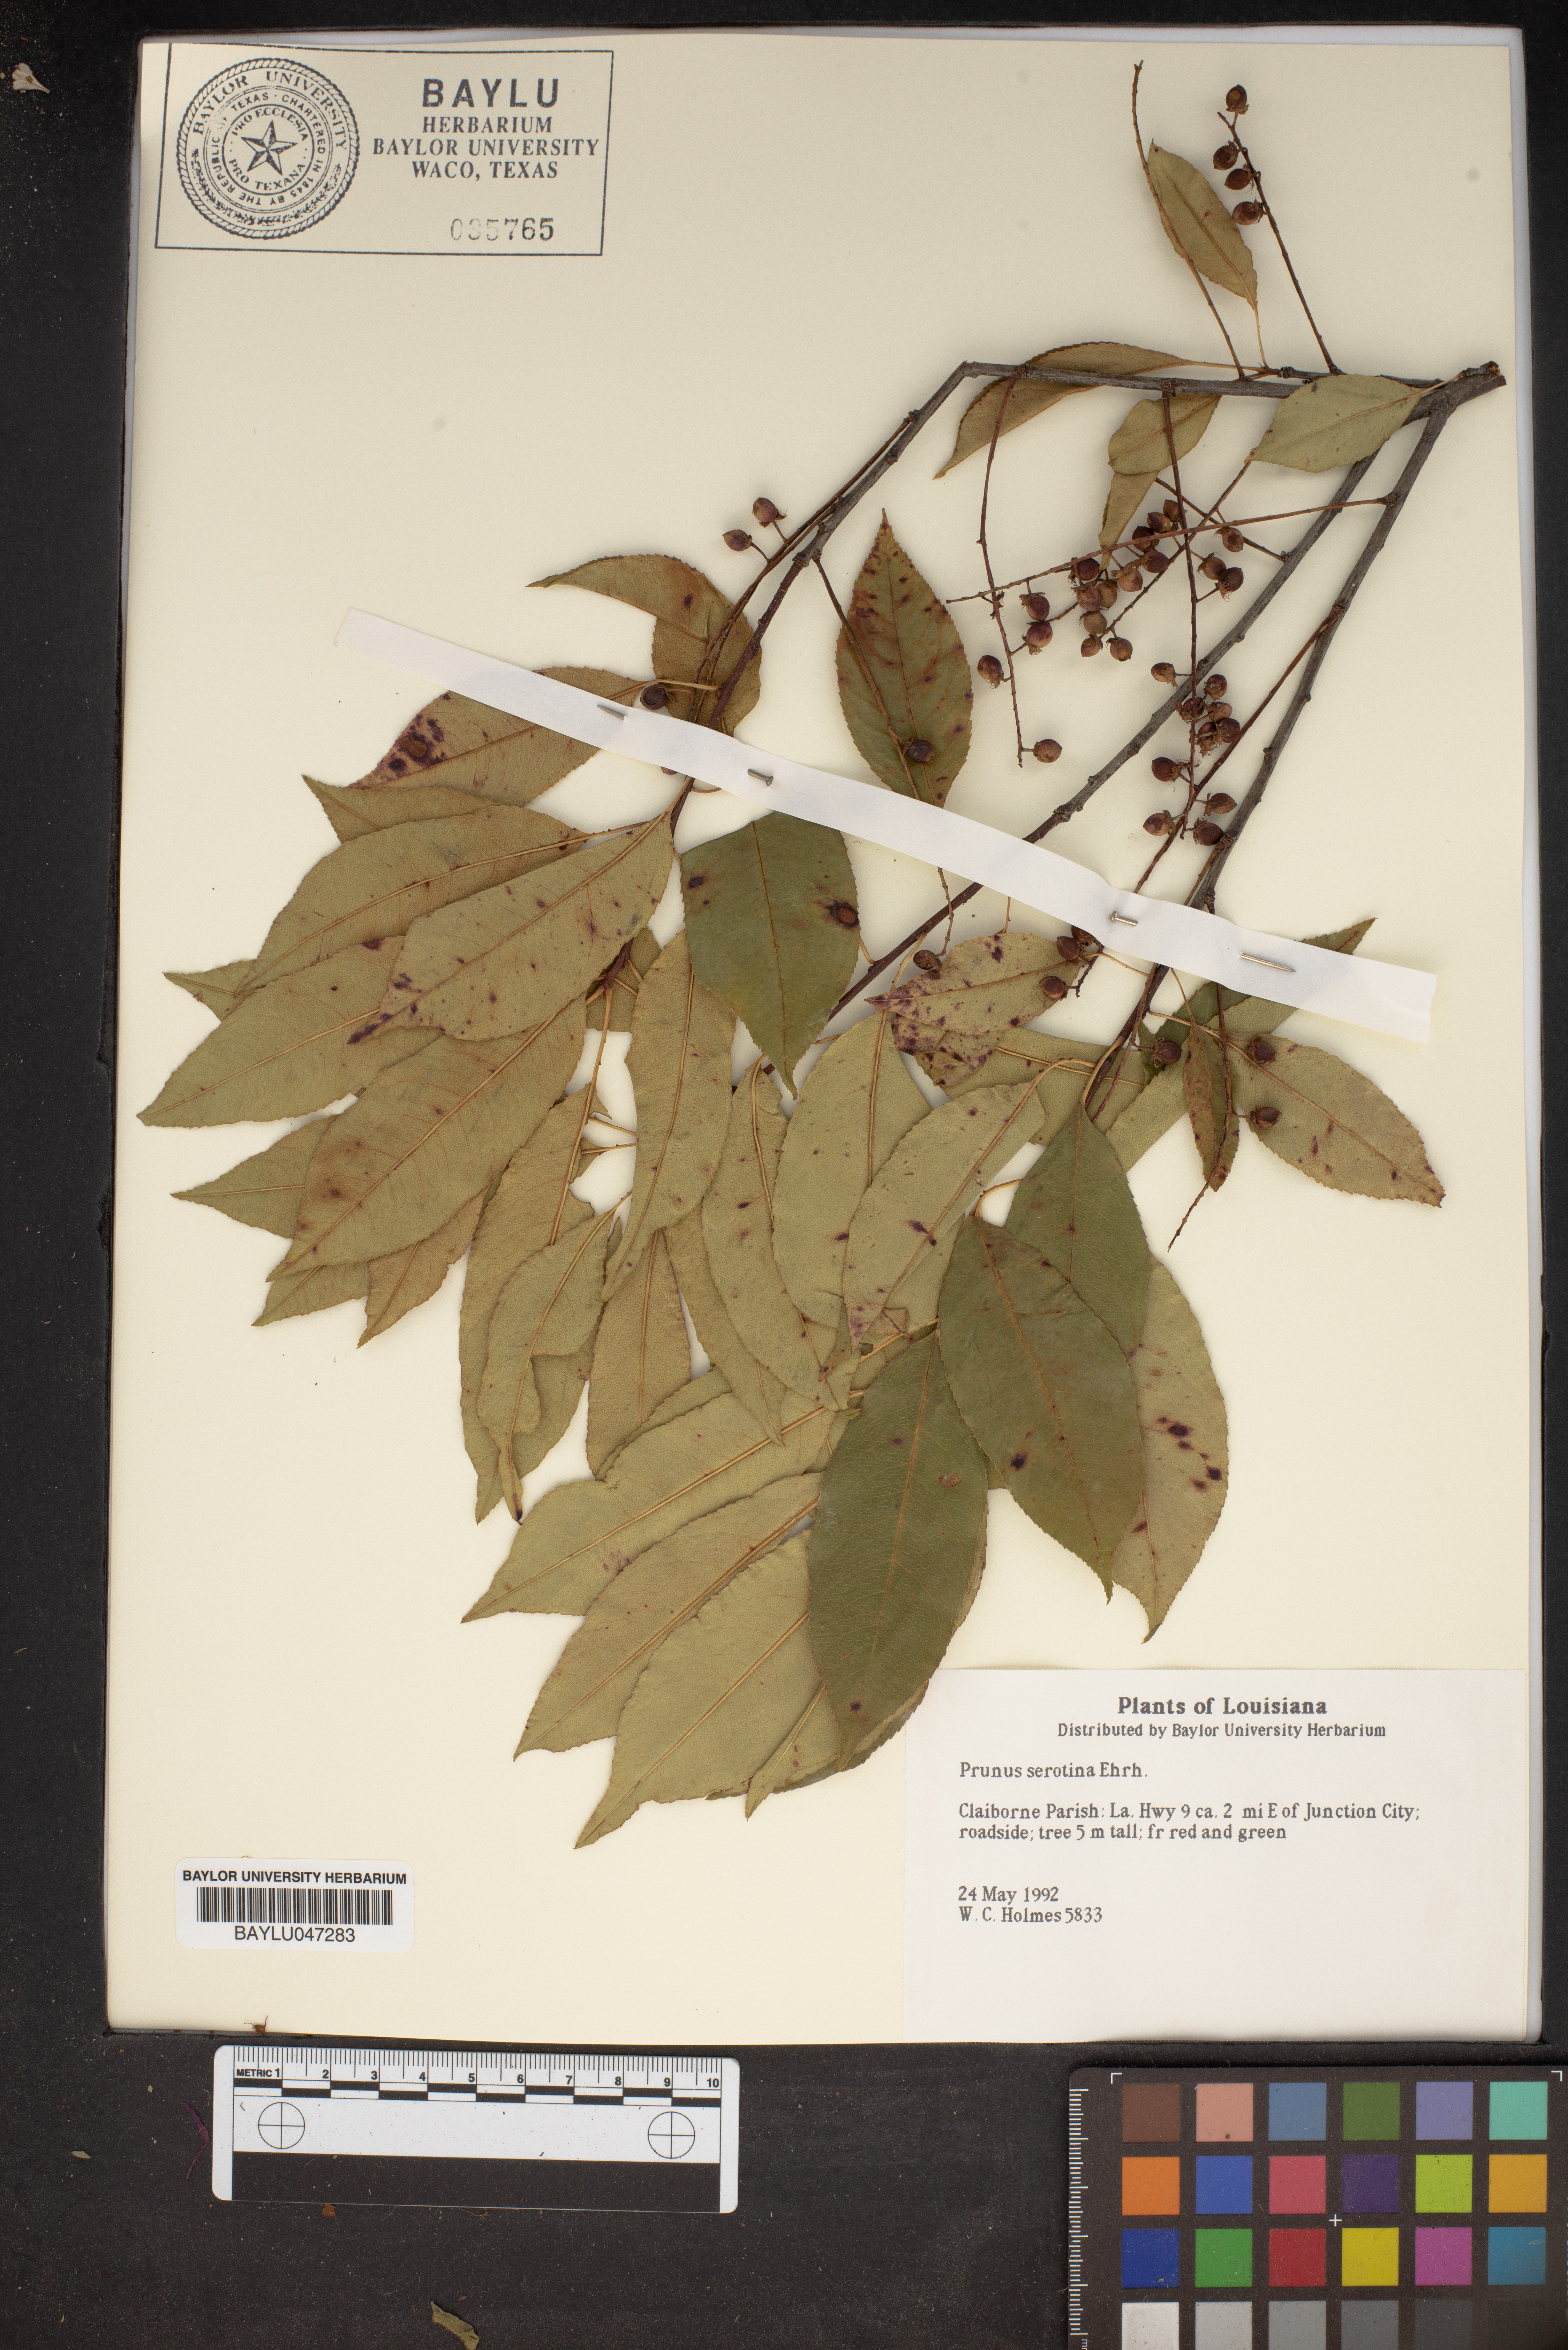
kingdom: Plantae
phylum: Tracheophyta
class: Magnoliopsida
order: Rosales
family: Rosaceae
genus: Prunus
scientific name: Prunus serotina
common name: Black cherry
